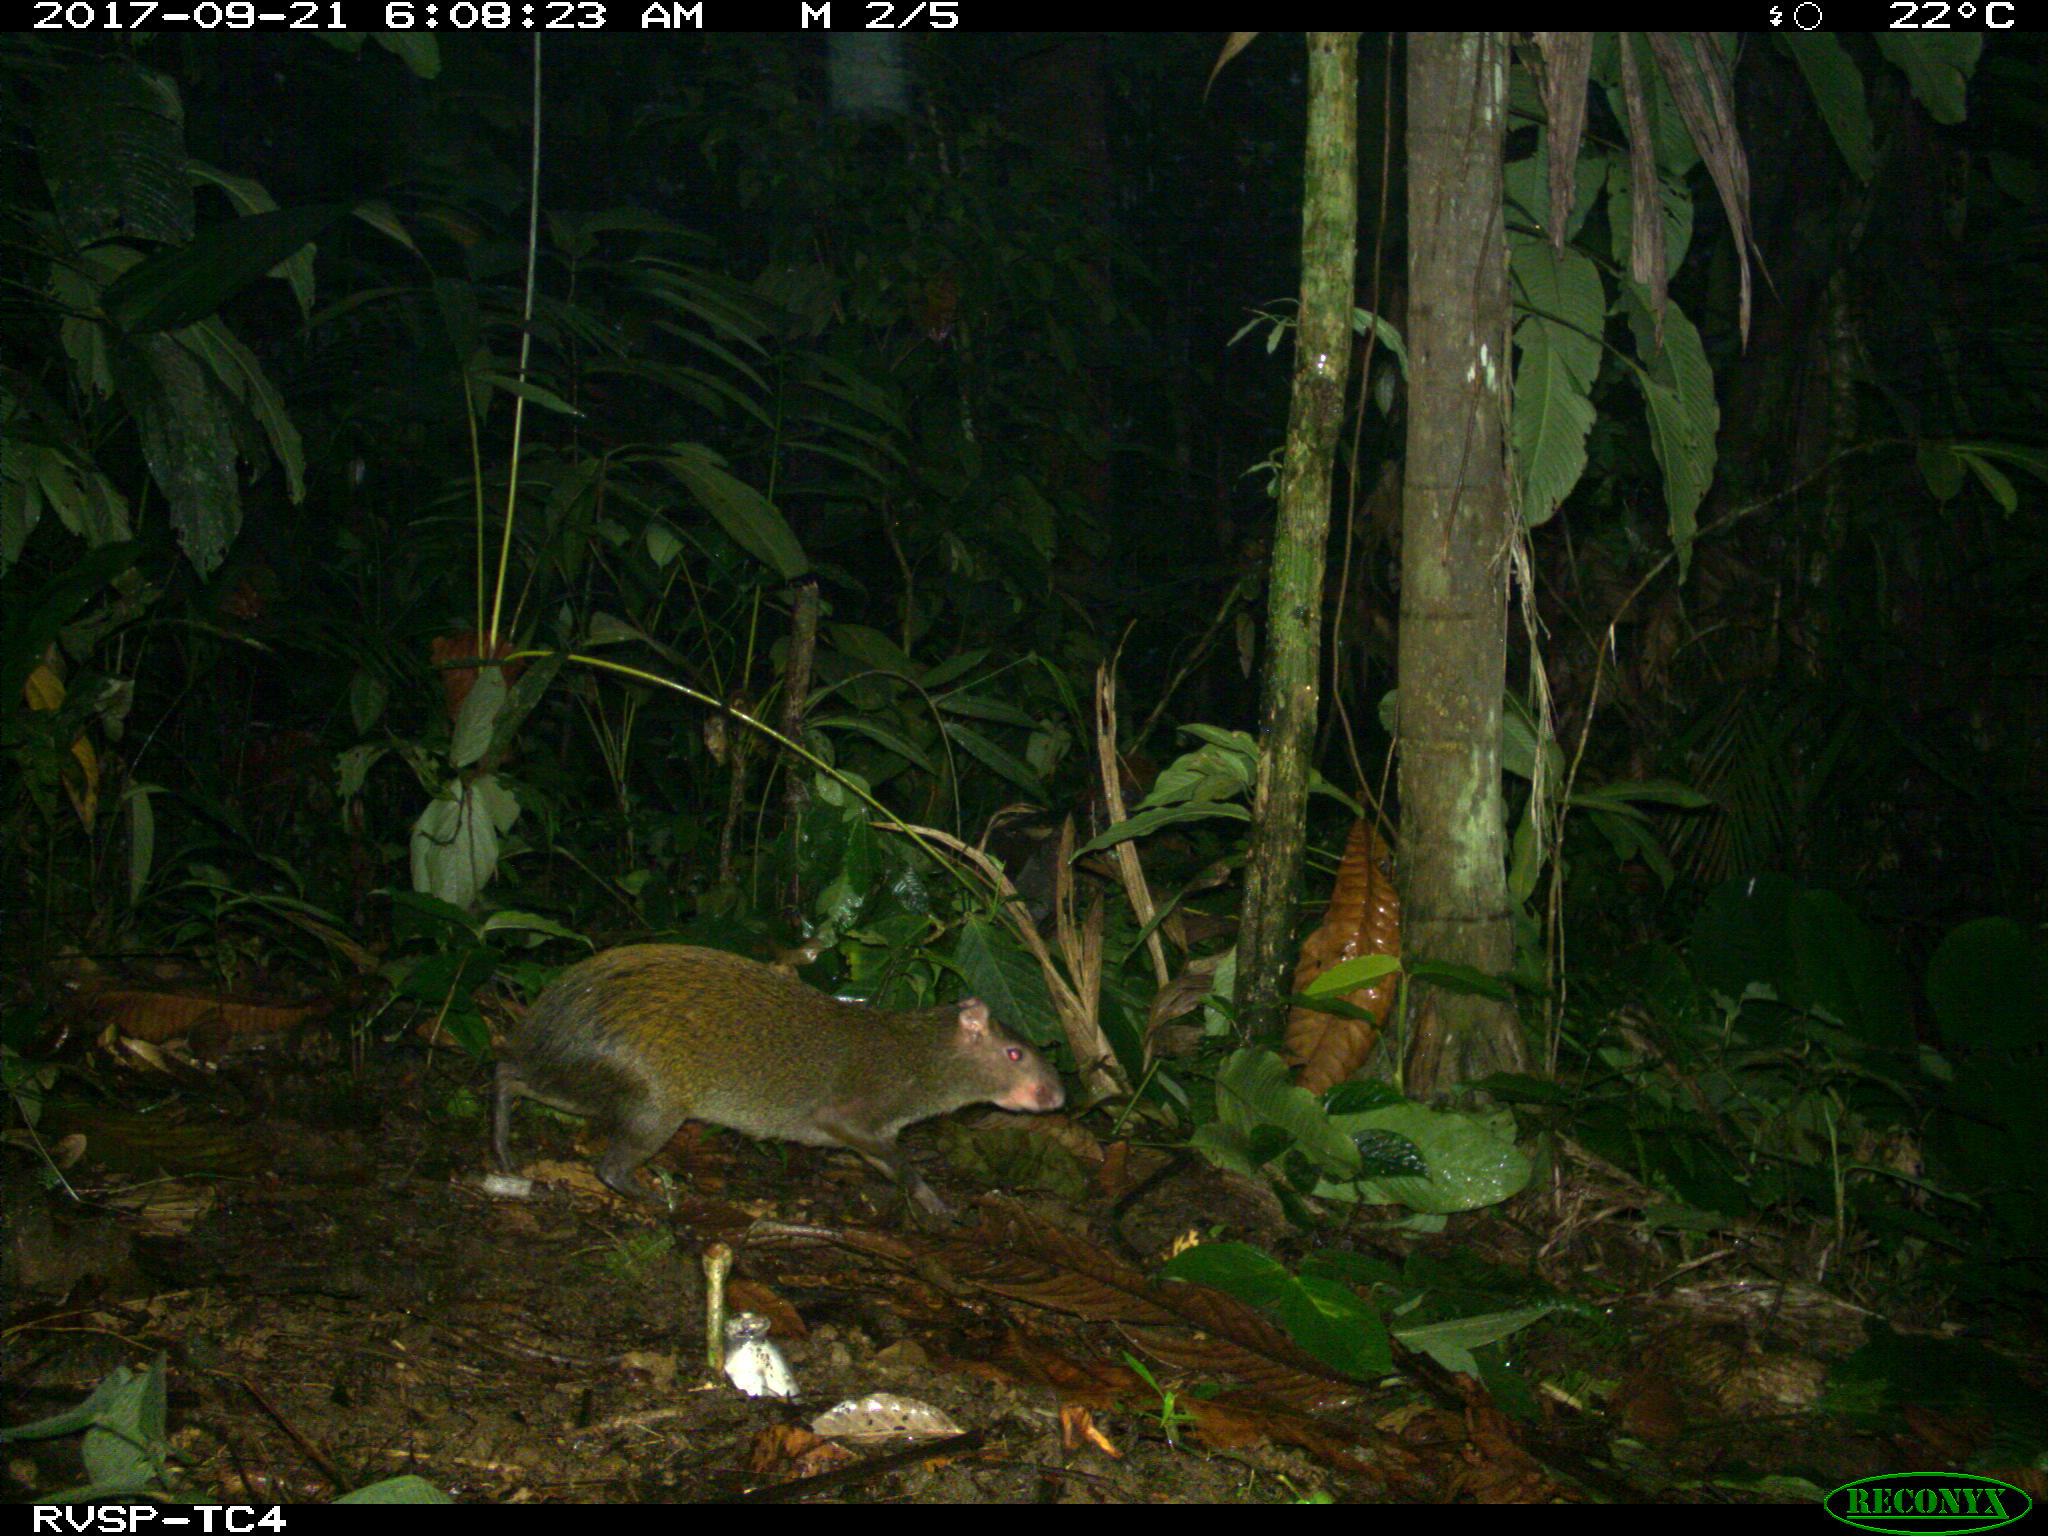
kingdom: Animalia
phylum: Chordata
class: Mammalia
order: Rodentia
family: Dasyproctidae
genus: Dasyprocta
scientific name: Dasyprocta punctata
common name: Central american agouti
